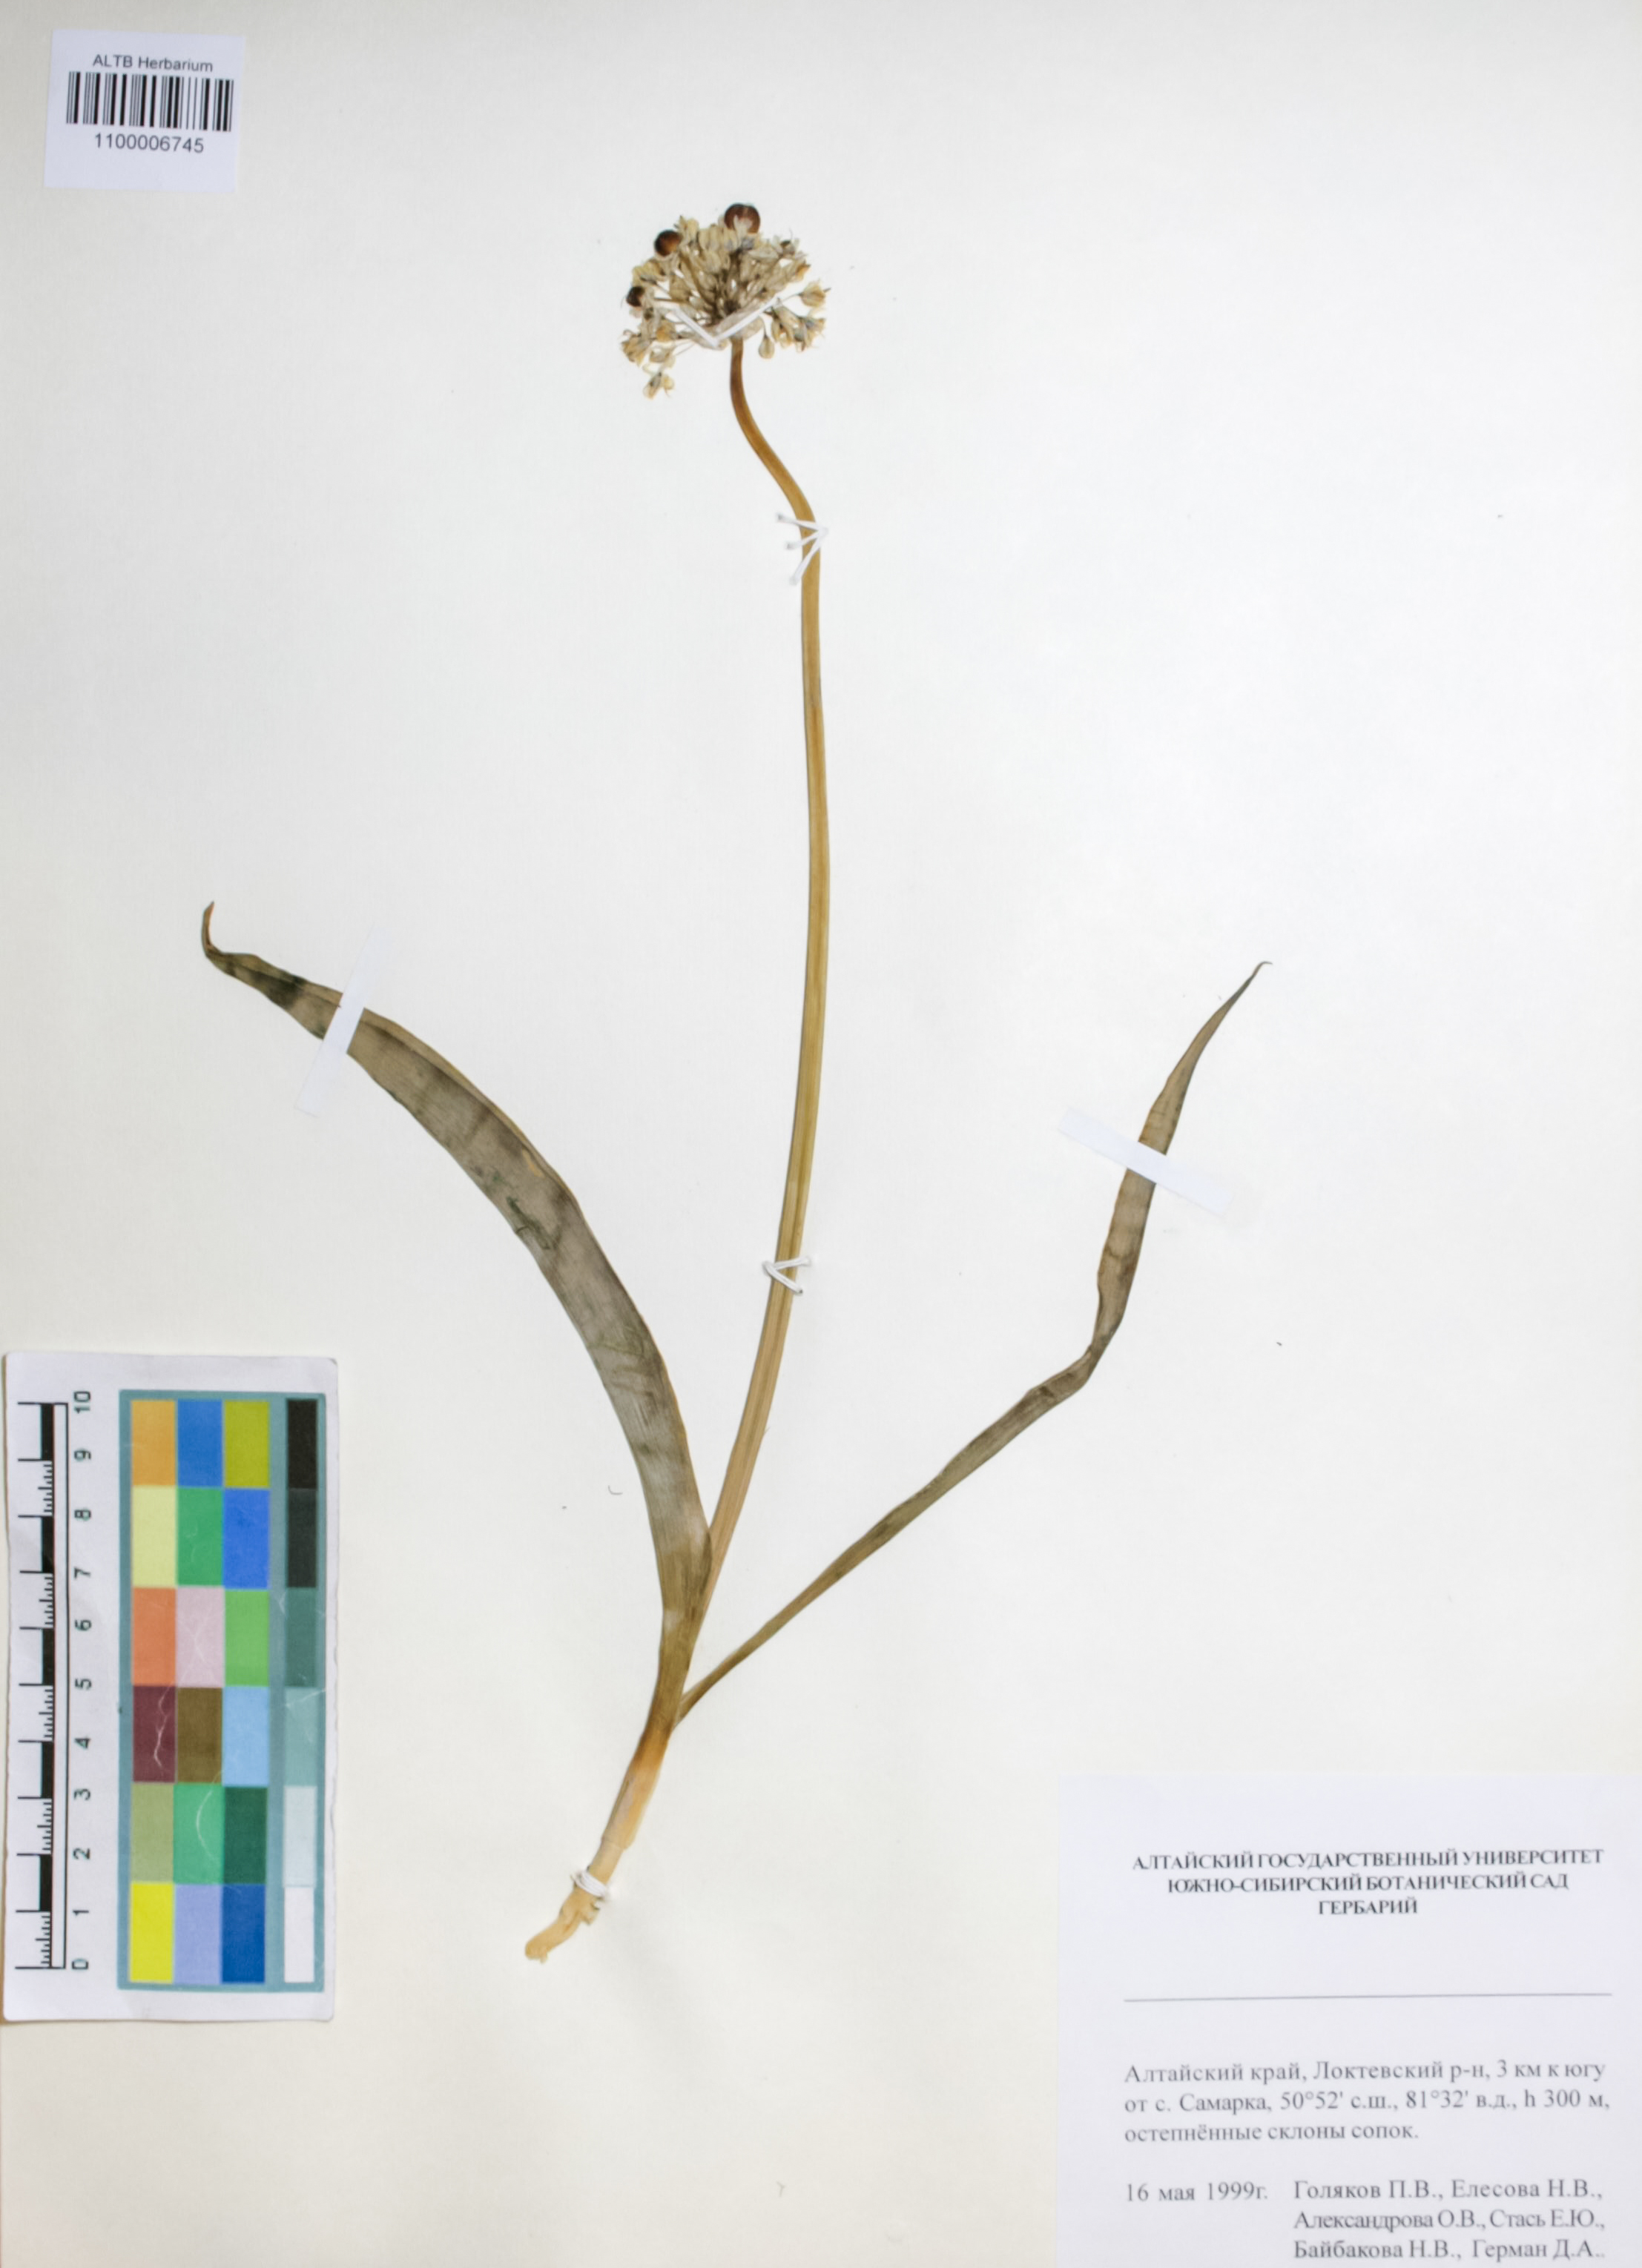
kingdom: Plantae
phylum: Tracheophyta
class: Liliopsida
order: Asparagales
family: Amaryllidaceae
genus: Allium
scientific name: Allium tulipifolium
